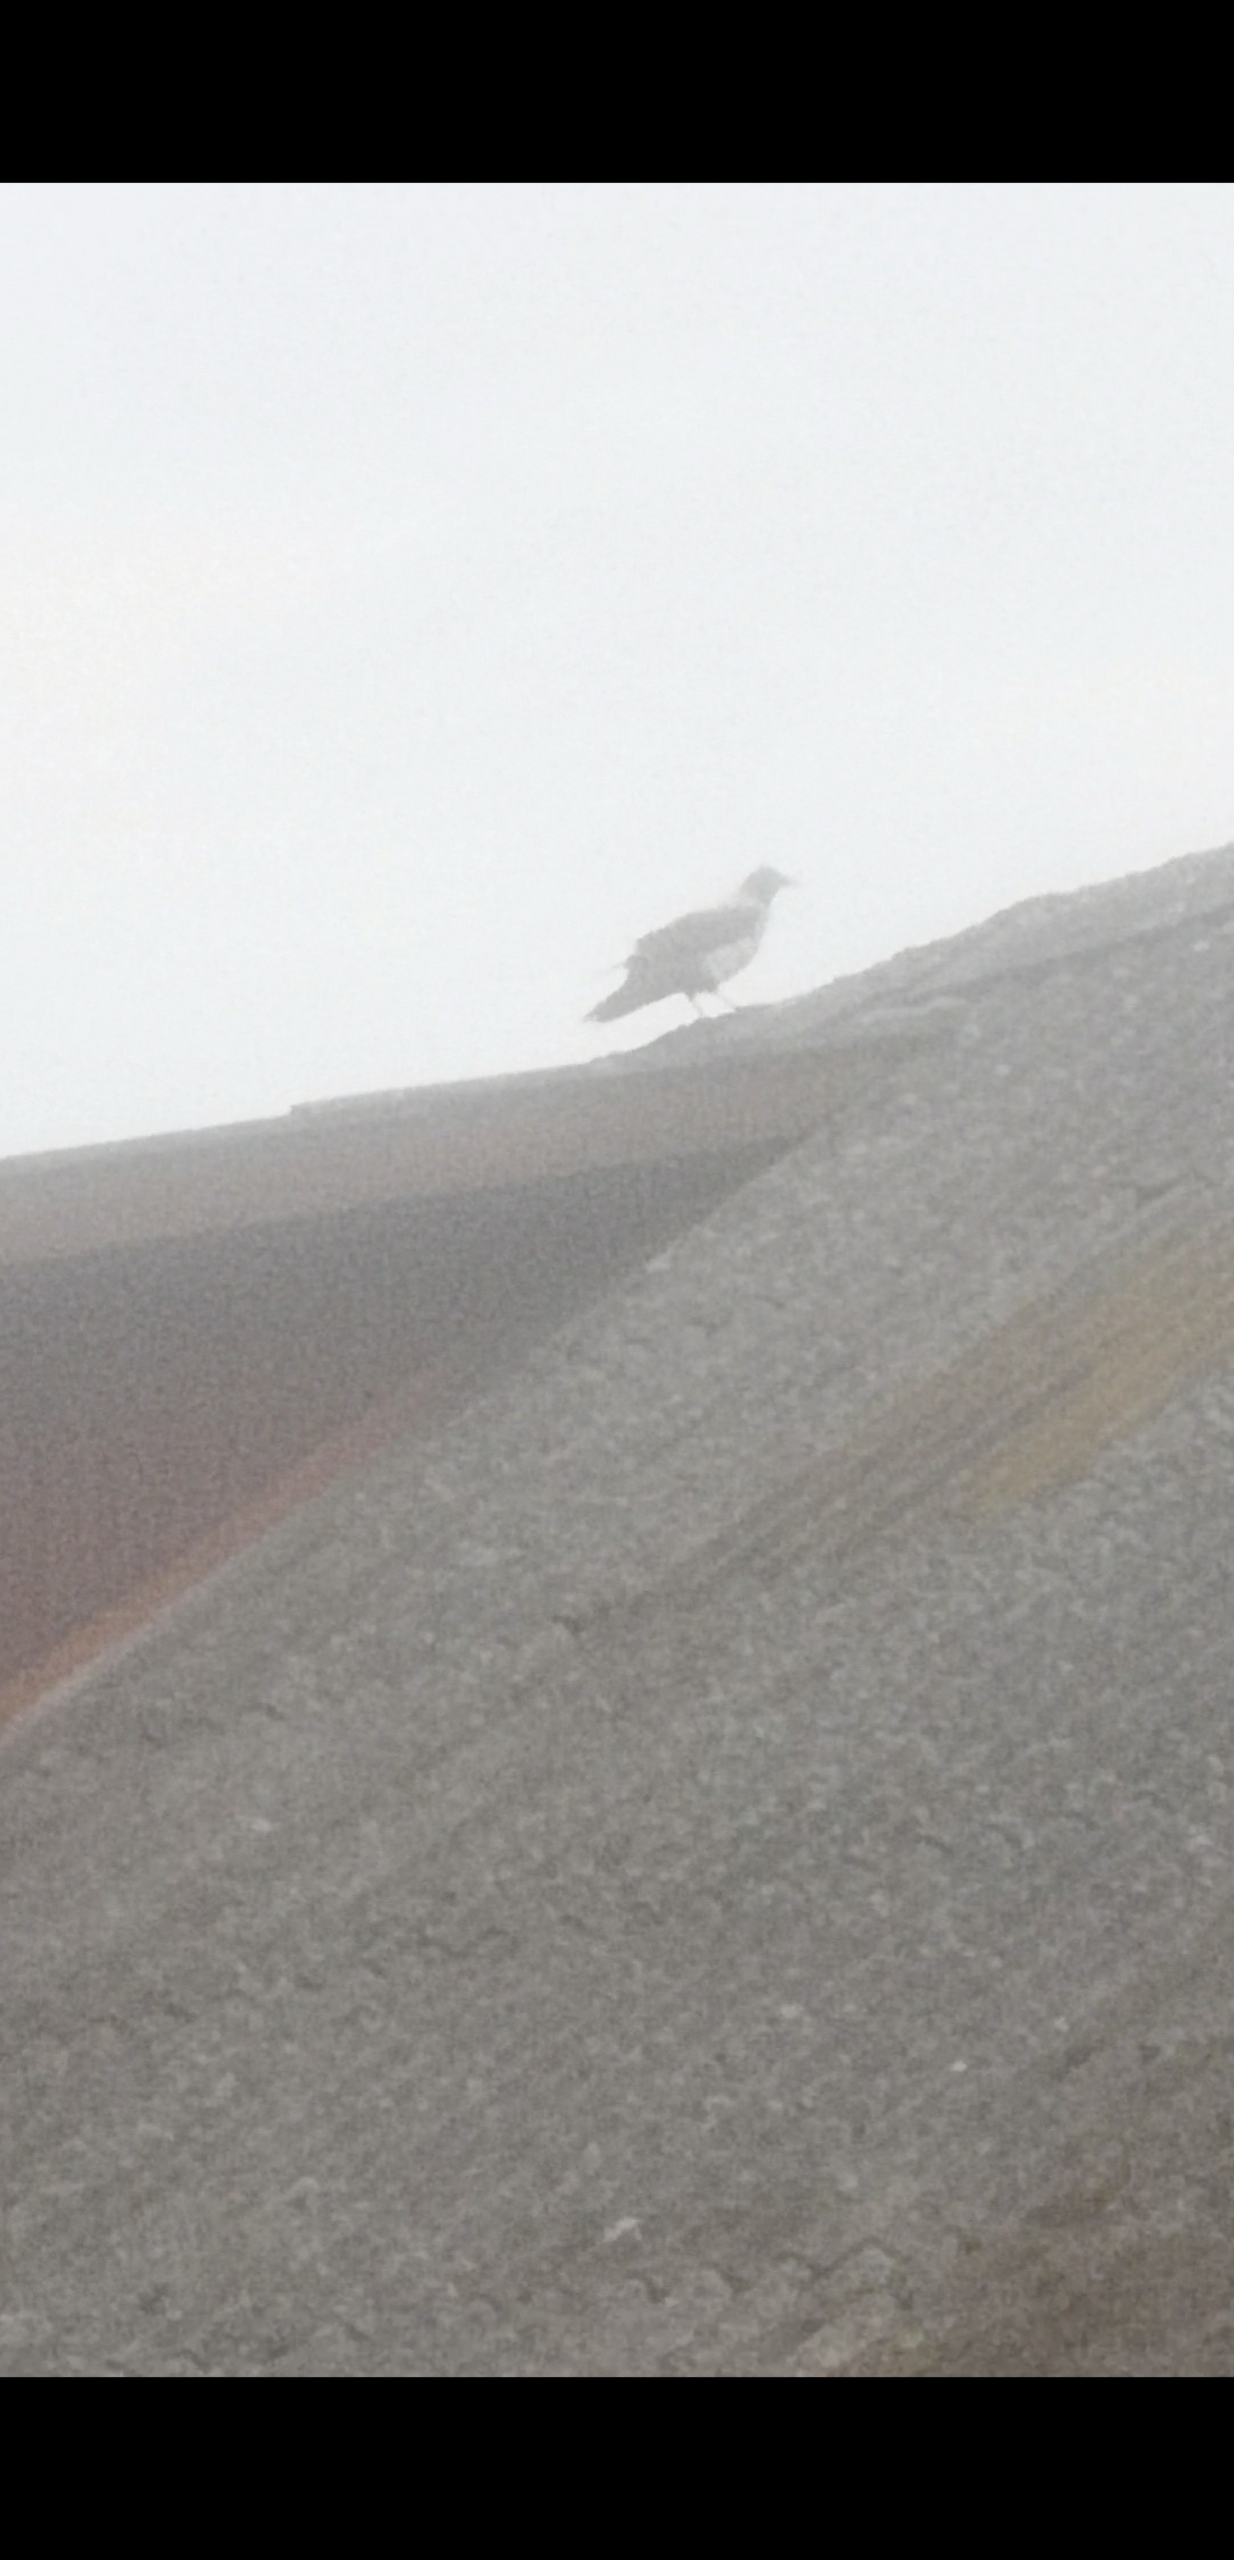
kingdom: Animalia
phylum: Chordata
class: Aves
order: Passeriformes
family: Corvidae
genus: Corvus
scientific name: Corvus cornix
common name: Gråkrage
